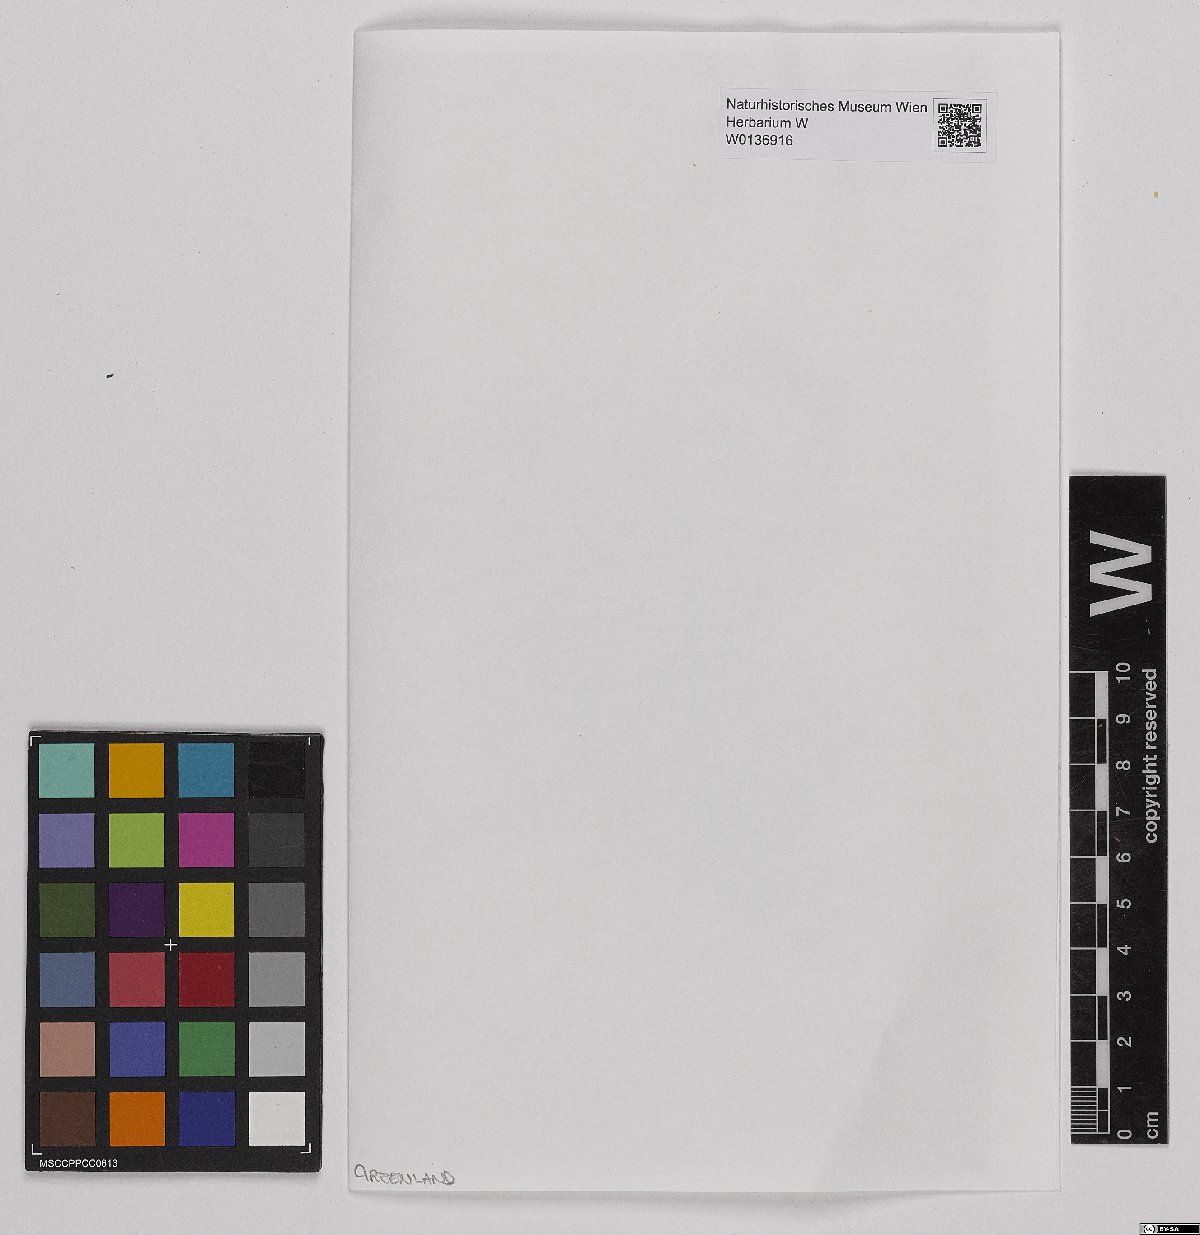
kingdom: Plantae
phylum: Bryophyta
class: Sphagnopsida
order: Sphagnales
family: Sphagnaceae
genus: Sphagnum
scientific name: Sphagnum fimbriatum
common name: Fringed peat moss
